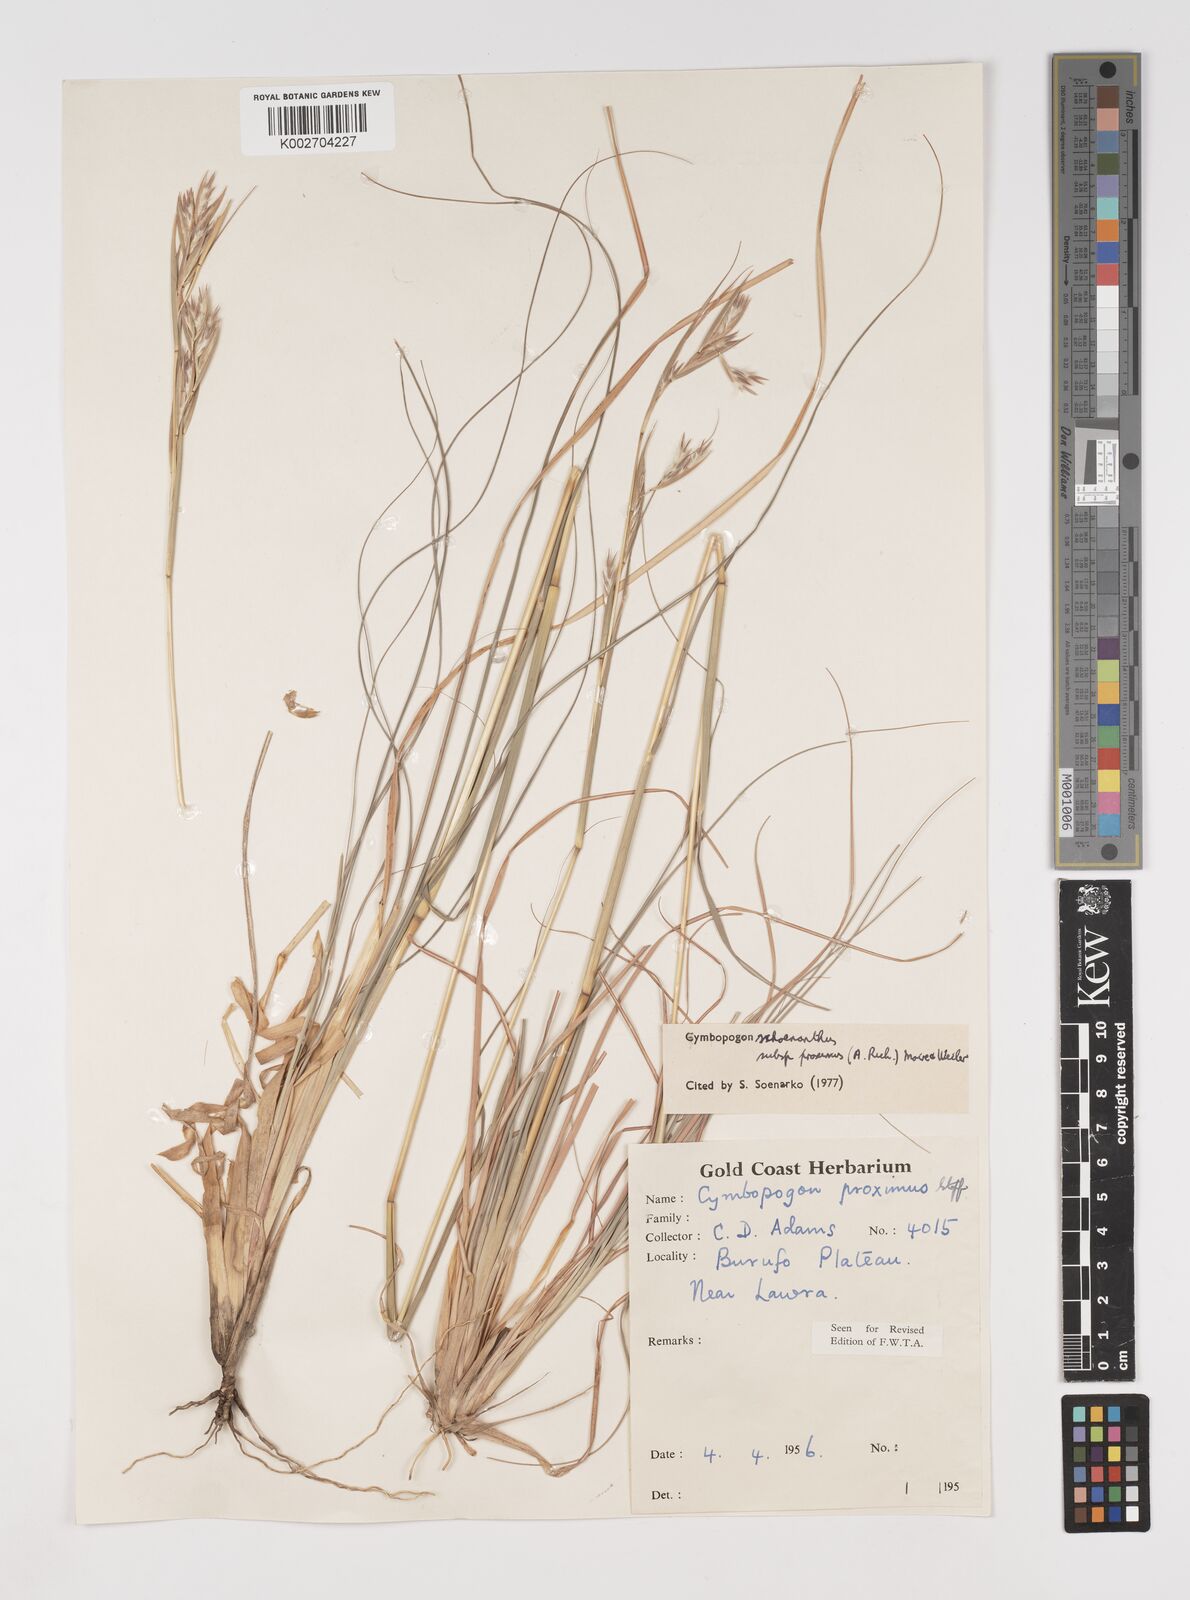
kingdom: Plantae
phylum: Tracheophyta
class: Liliopsida
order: Poales
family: Poaceae
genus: Cymbopogon
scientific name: Cymbopogon schoenanthus
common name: Geranium grass
